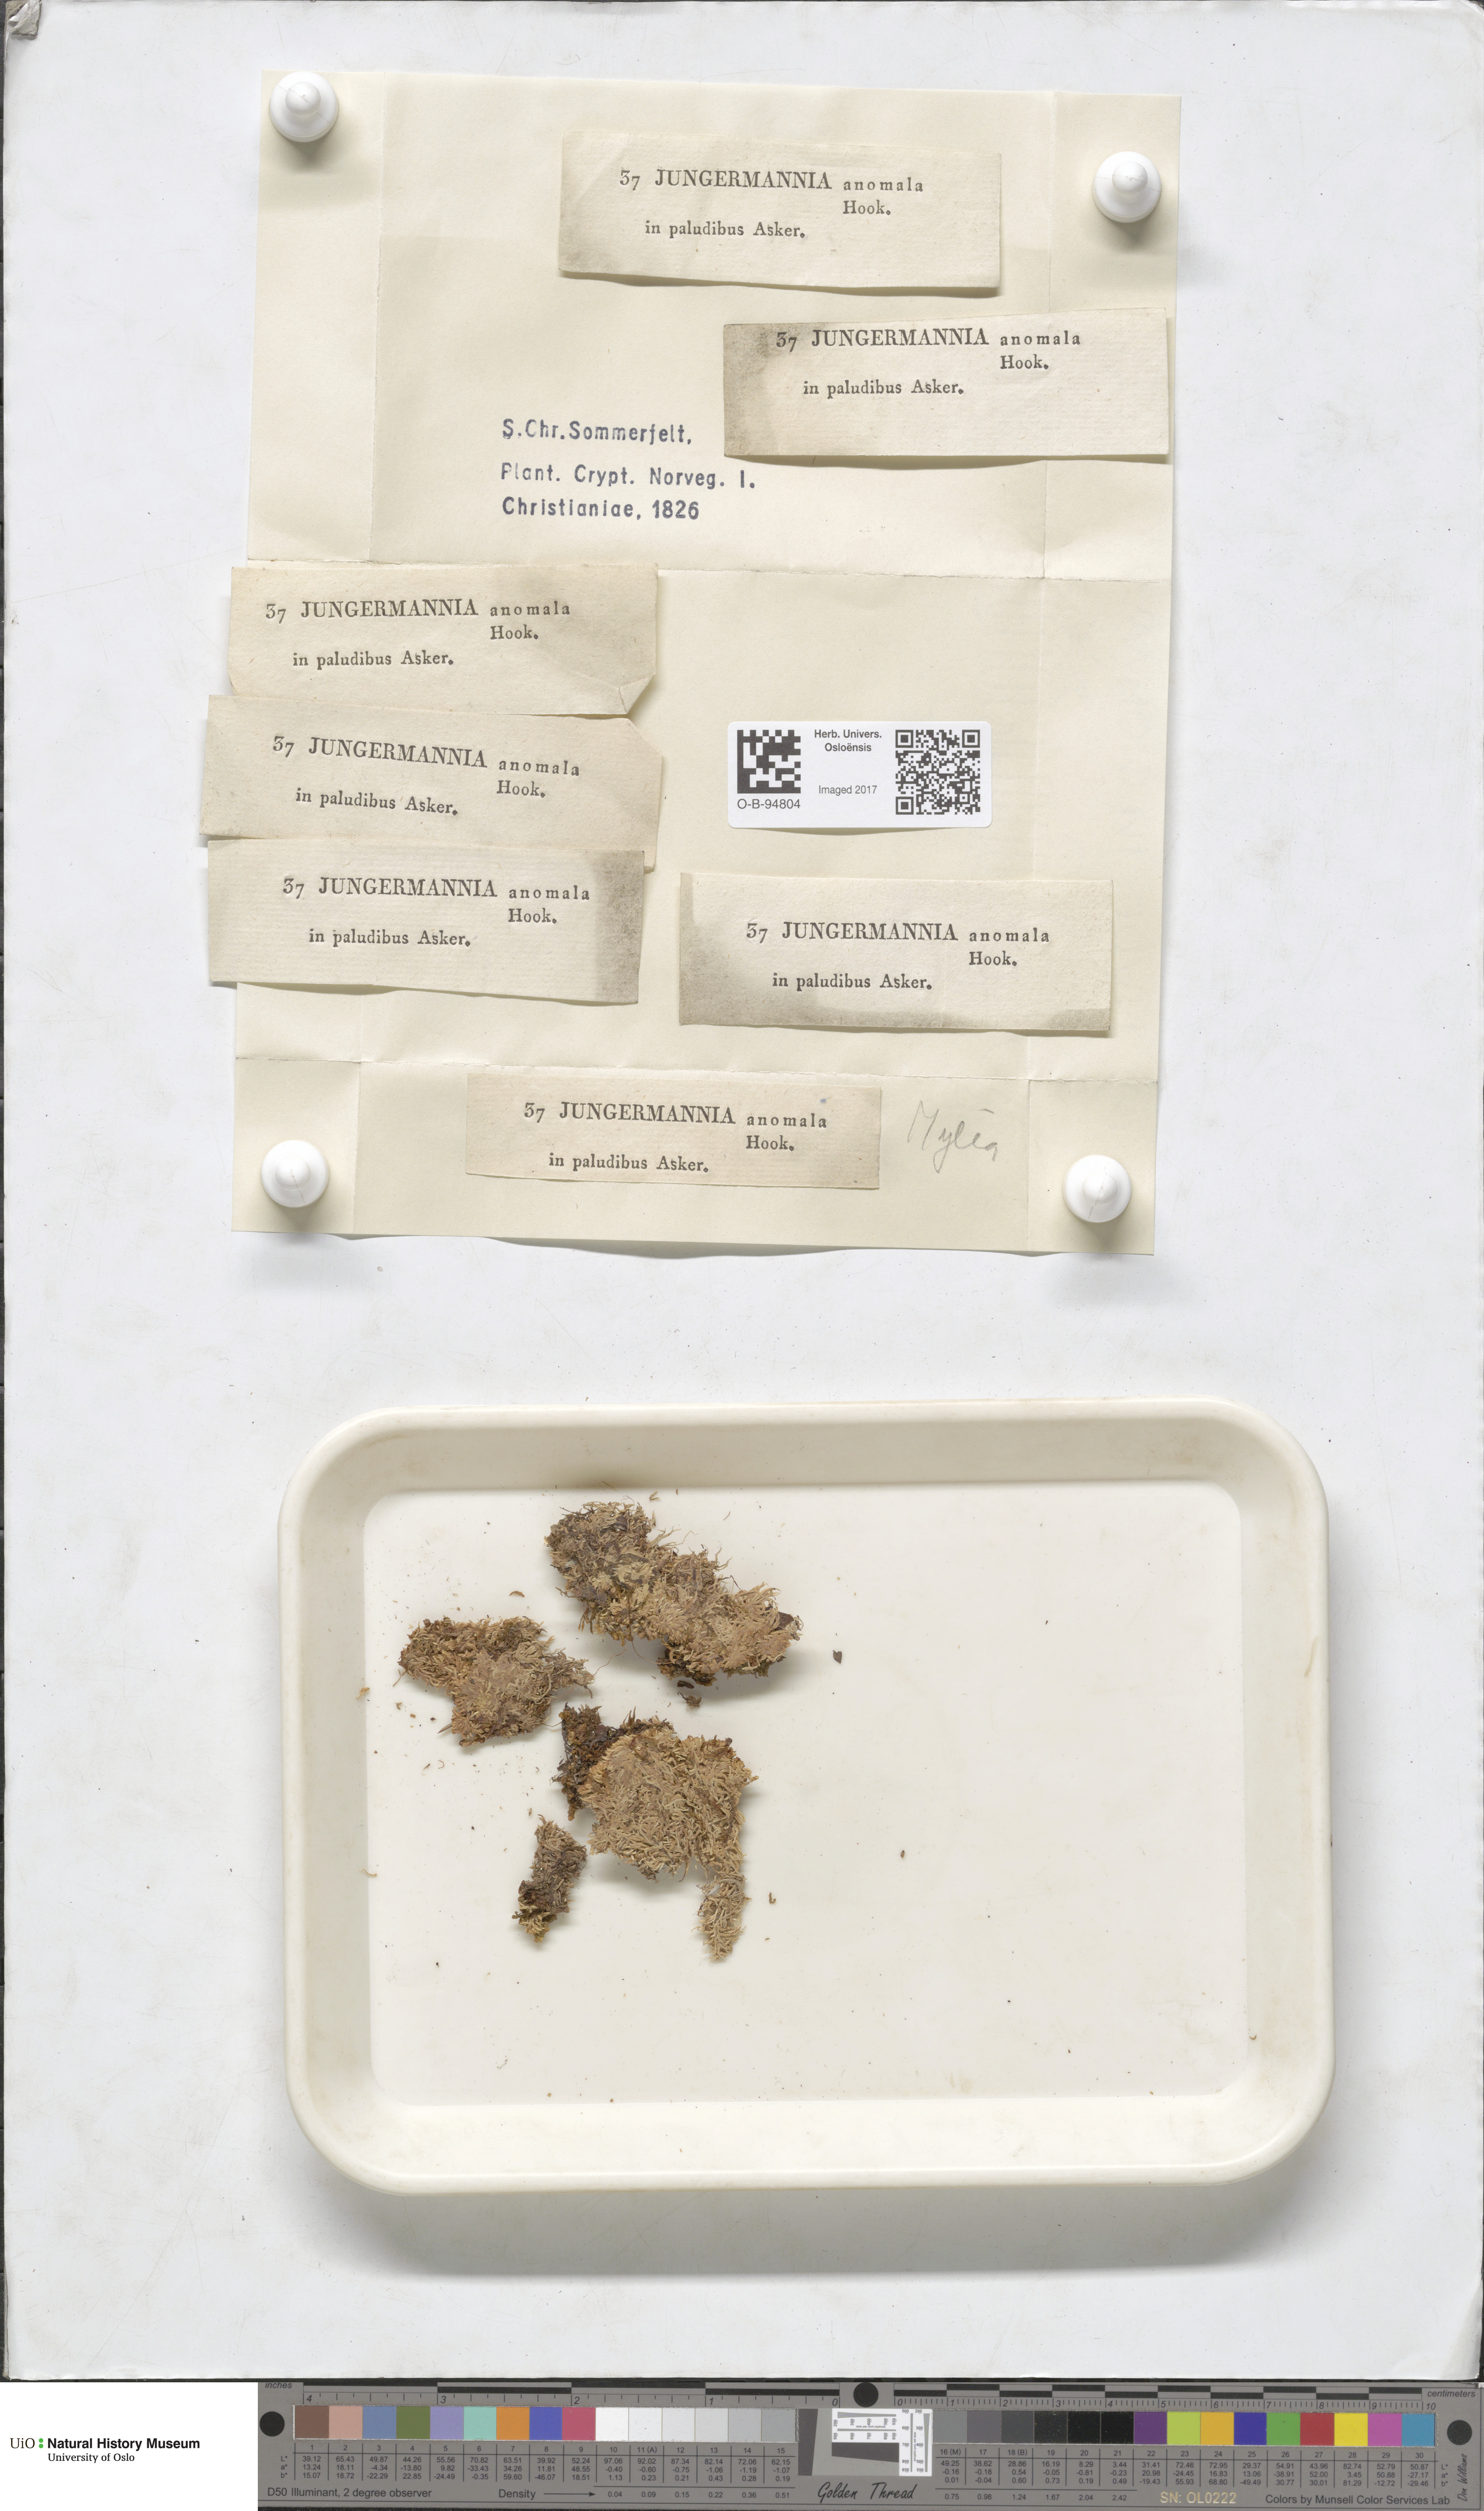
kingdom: Plantae
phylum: Marchantiophyta
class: Jungermanniopsida
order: Jungermanniales
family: Myliaceae
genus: Mylia
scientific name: Mylia anomala
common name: Anomalous flapwort
